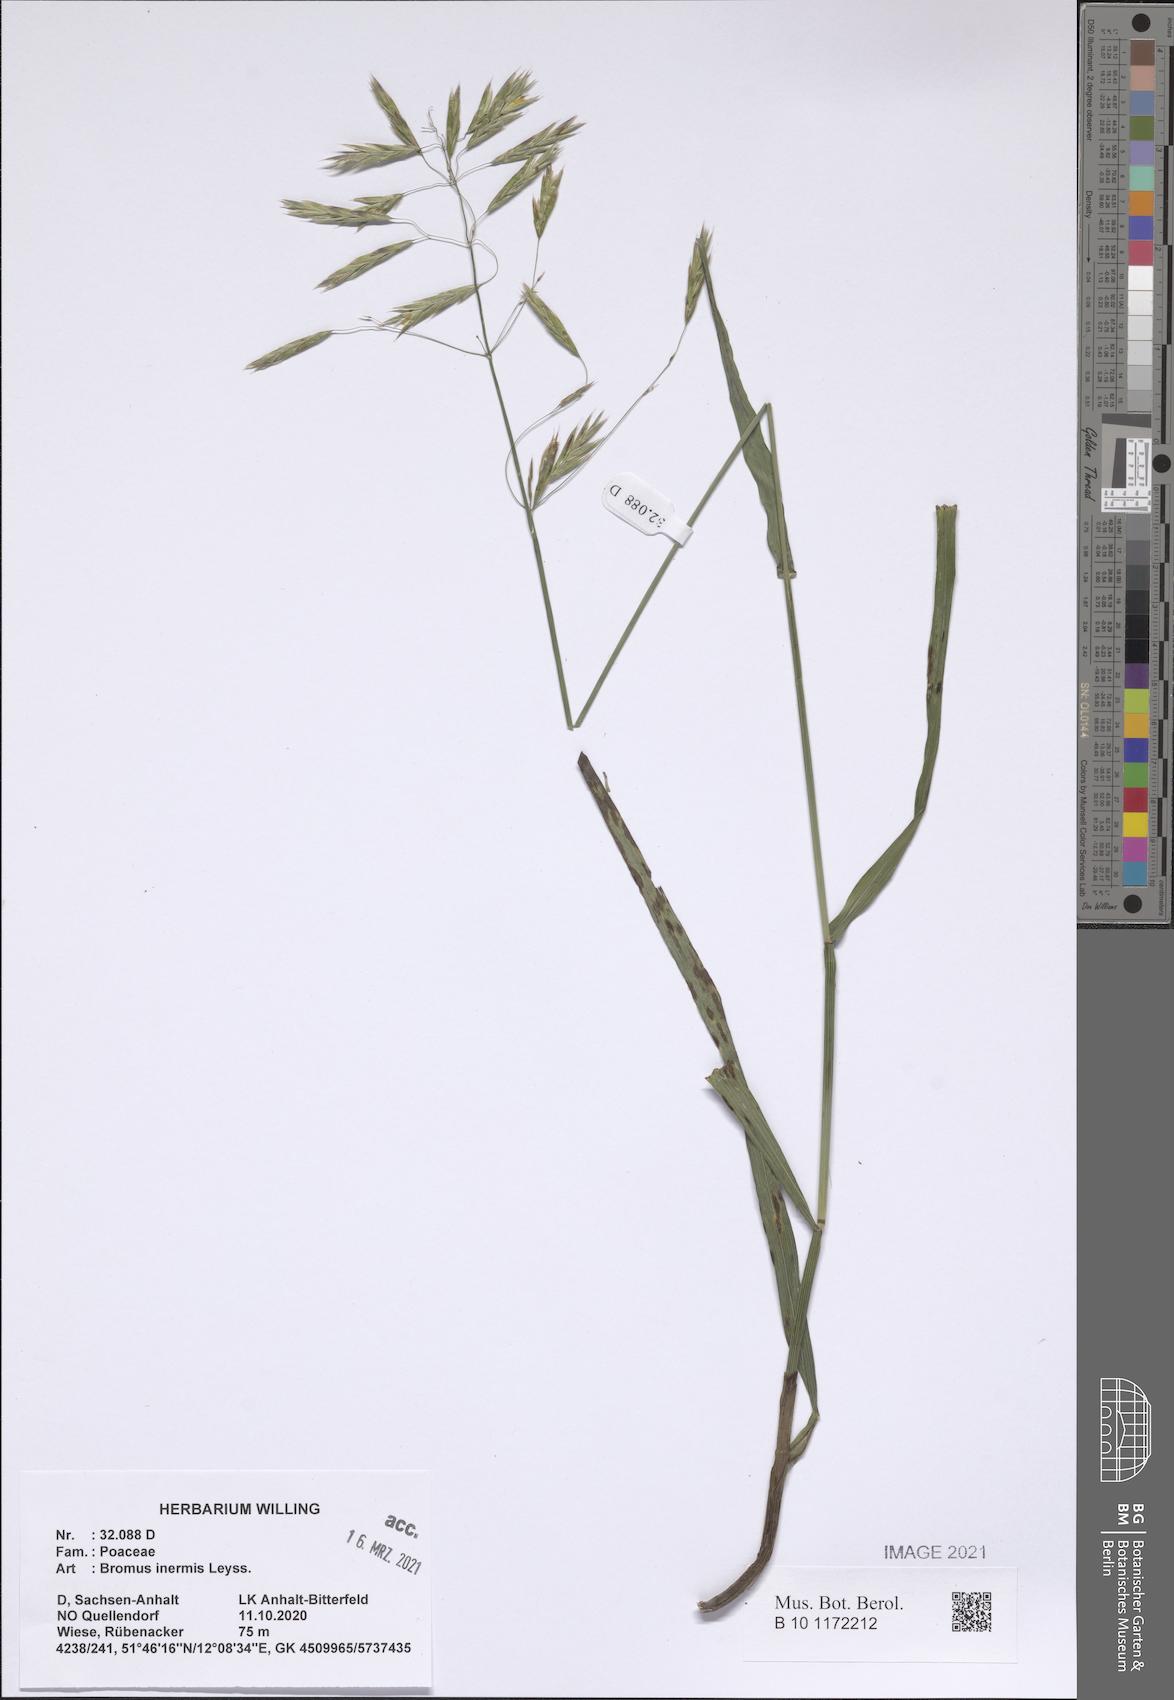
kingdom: Plantae
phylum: Tracheophyta
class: Liliopsida
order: Poales
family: Poaceae
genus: Bromus
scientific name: Bromus inermis
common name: Smooth brome
